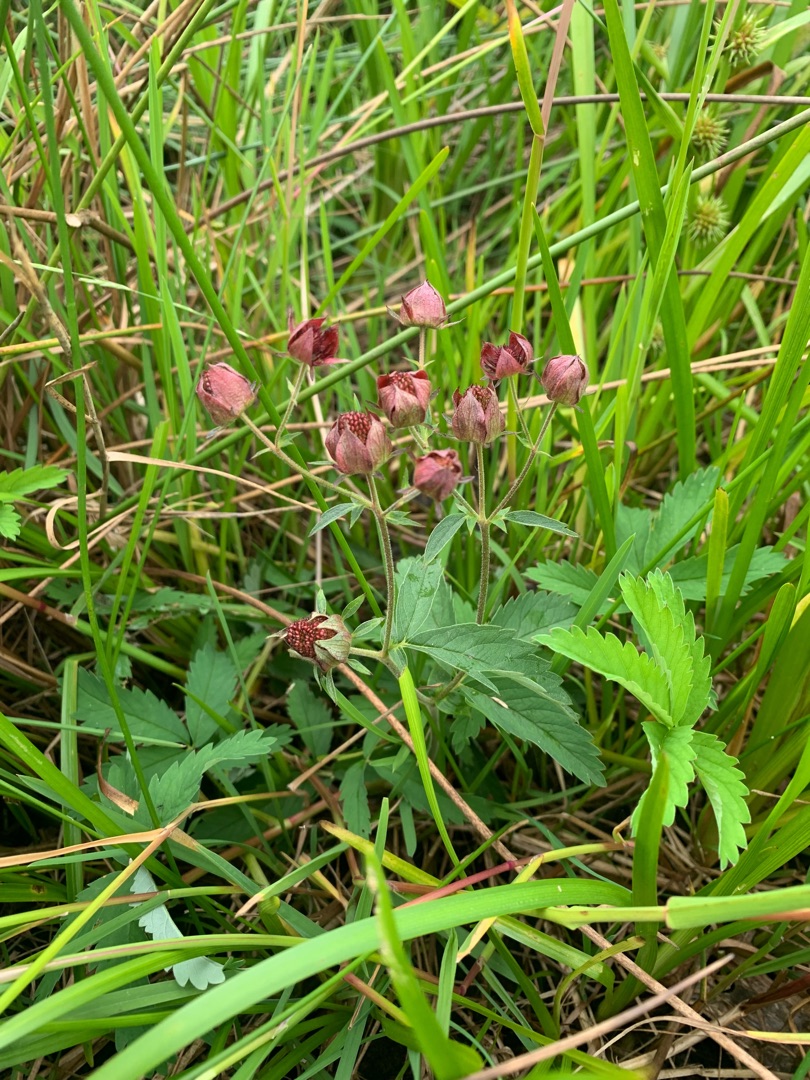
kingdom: Plantae
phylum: Tracheophyta
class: Magnoliopsida
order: Rosales
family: Rosaceae
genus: Comarum
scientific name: Comarum palustre
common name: Kragefod
